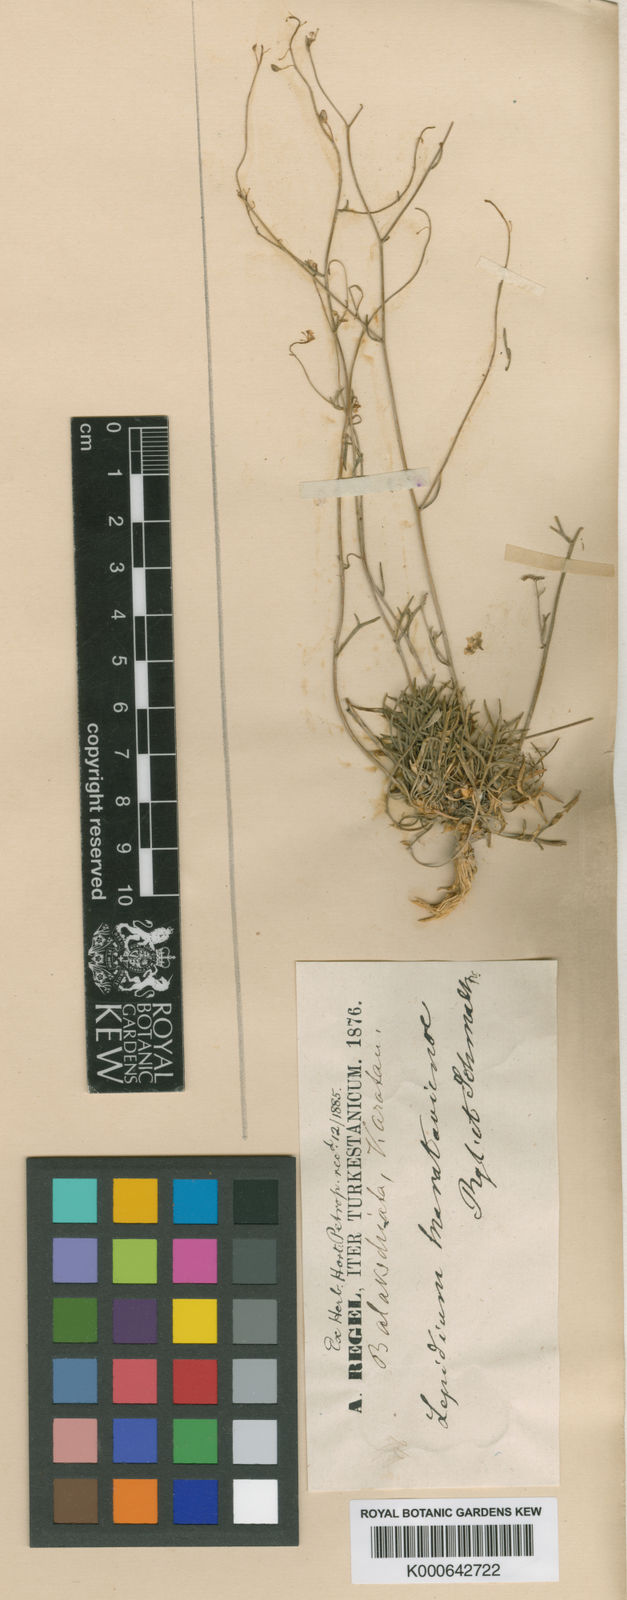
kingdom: Plantae
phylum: Tracheophyta
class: Magnoliopsida
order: Brassicales
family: Brassicaceae
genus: Lepidium
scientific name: Lepidium karataviense
